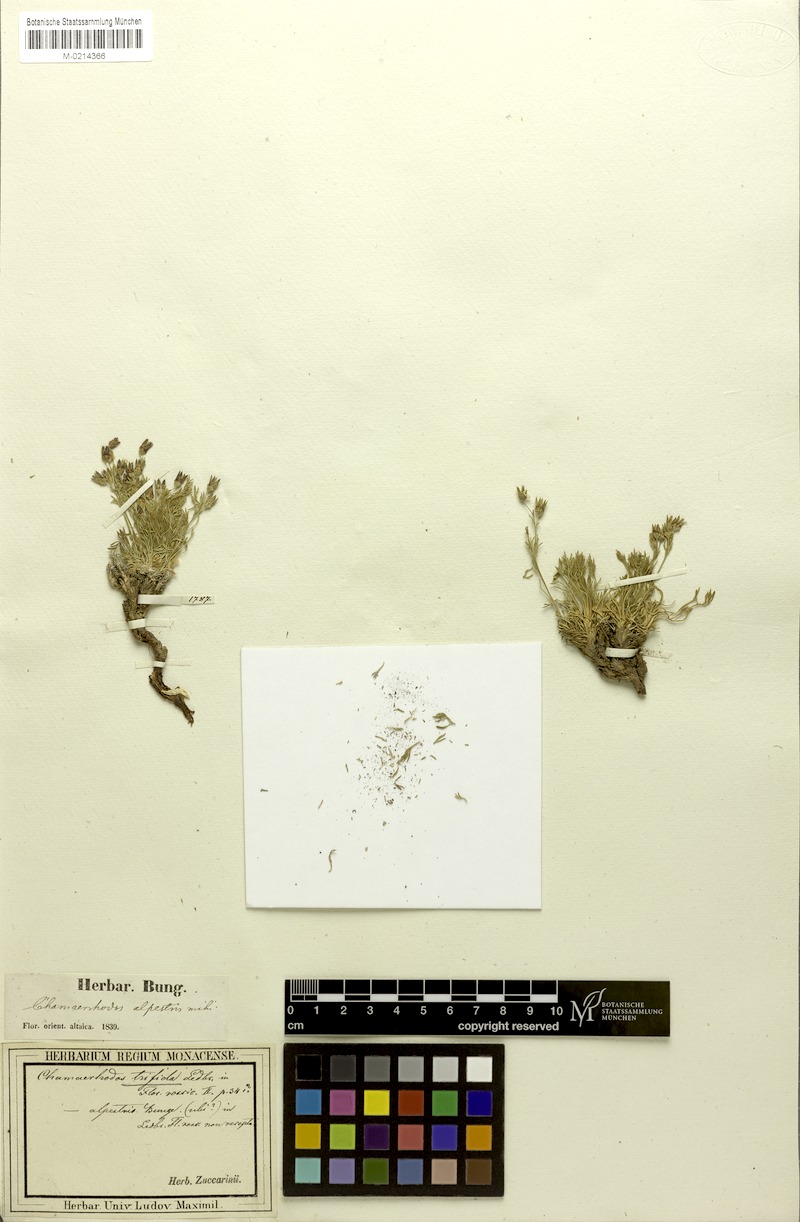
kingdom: Plantae
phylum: Tracheophyta
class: Magnoliopsida
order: Rosales
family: Rosaceae
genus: Chamaerhodos
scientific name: Chamaerhodos trifida
